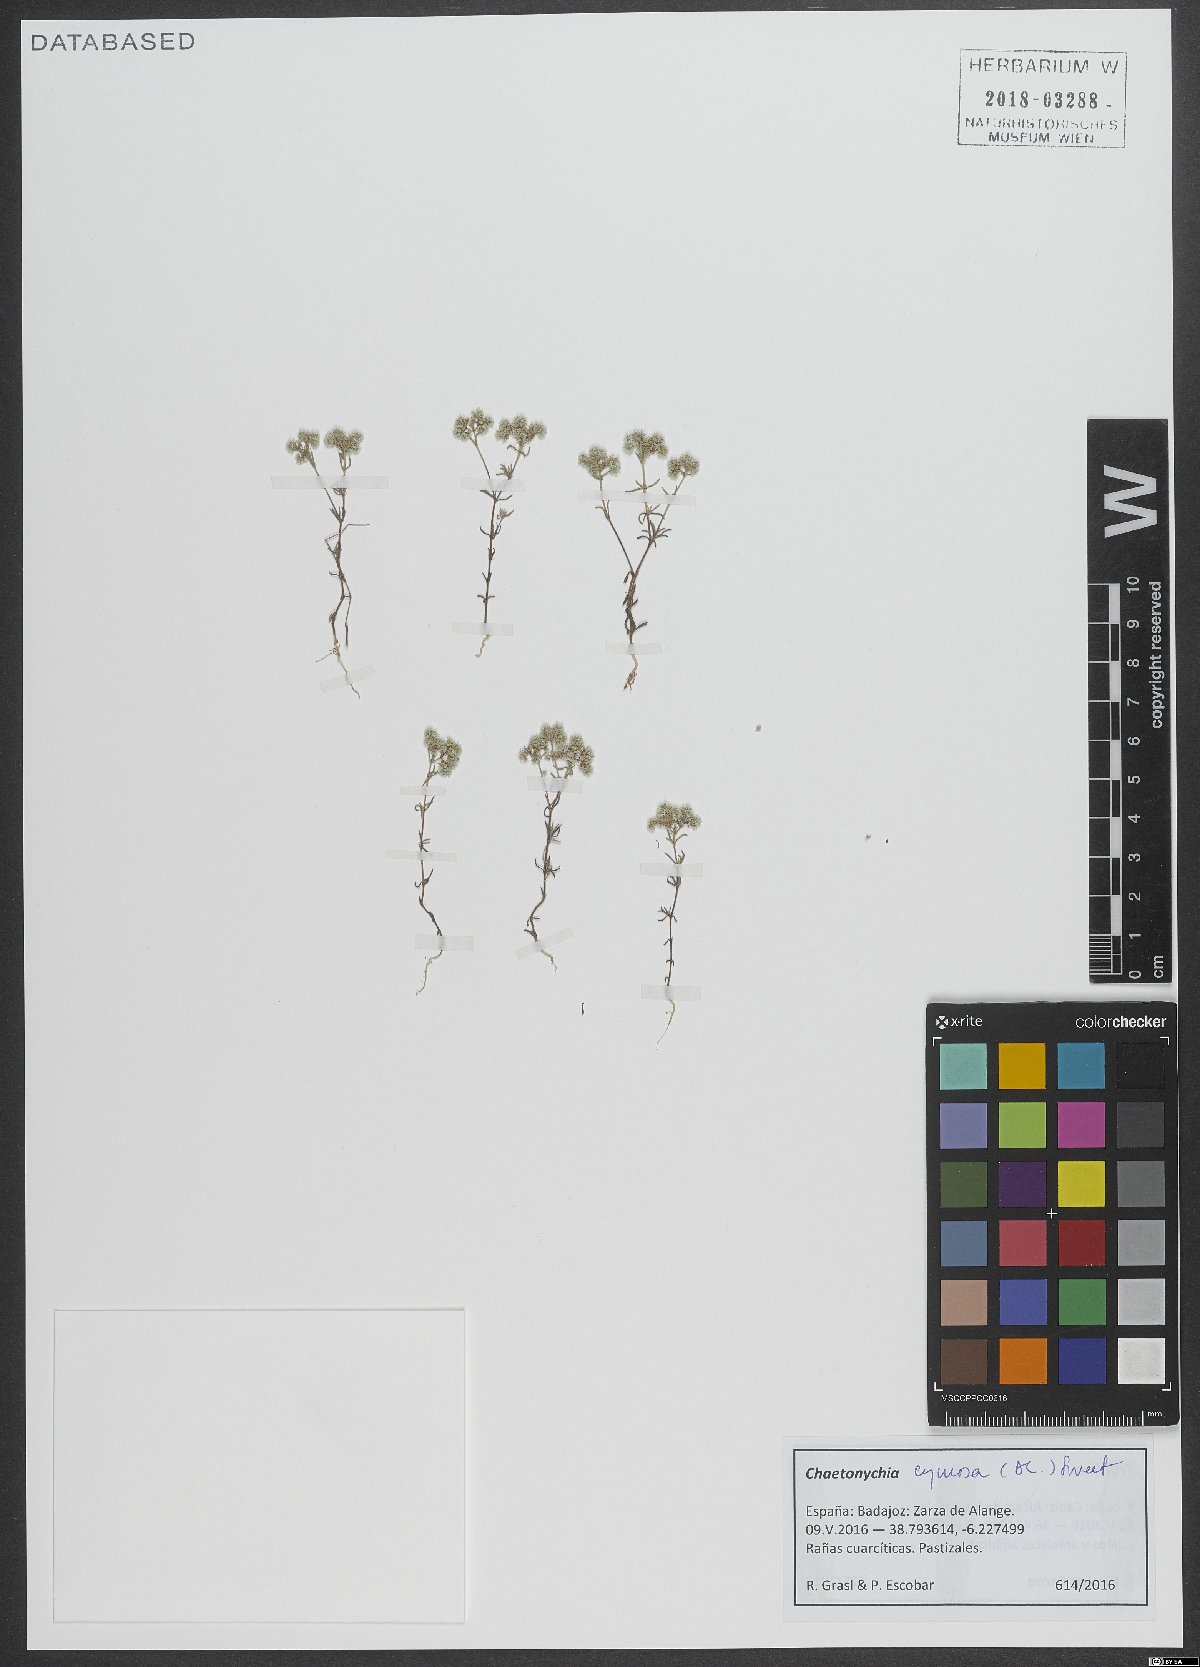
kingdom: Plantae
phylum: Tracheophyta
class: Magnoliopsida
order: Caryophyllales
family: Caryophyllaceae
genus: Chaetonychia
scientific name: Chaetonychia cymosa
